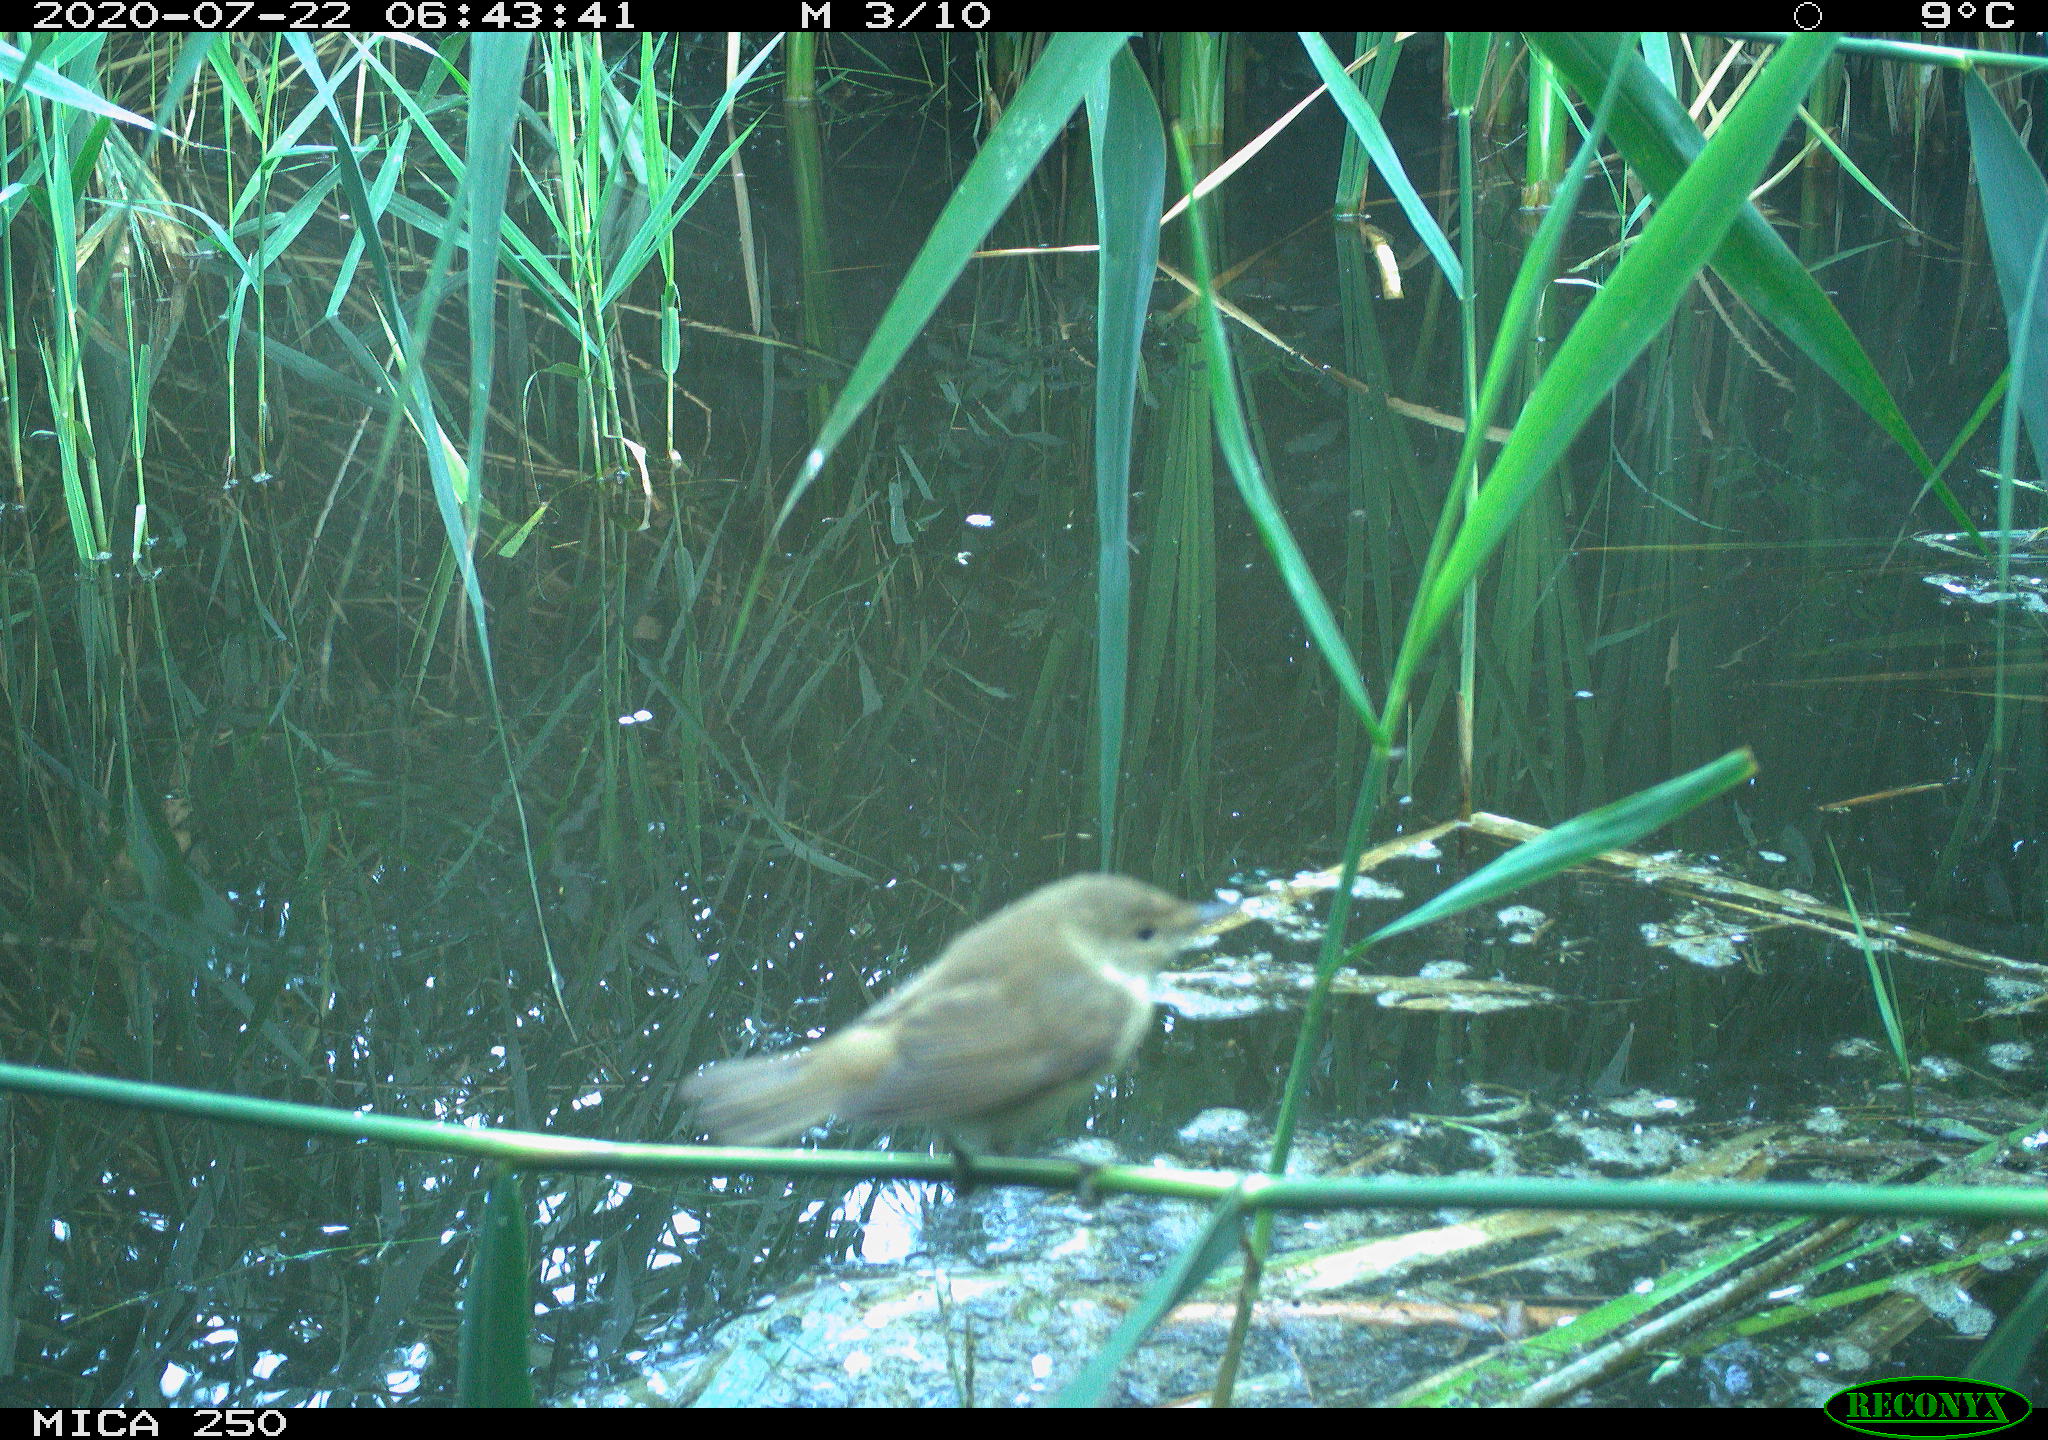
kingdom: Animalia
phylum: Chordata
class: Aves
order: Passeriformes
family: Acrocephalidae
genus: Acrocephalus
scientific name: Acrocephalus scirpaceus
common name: Eurasian reed warbler
